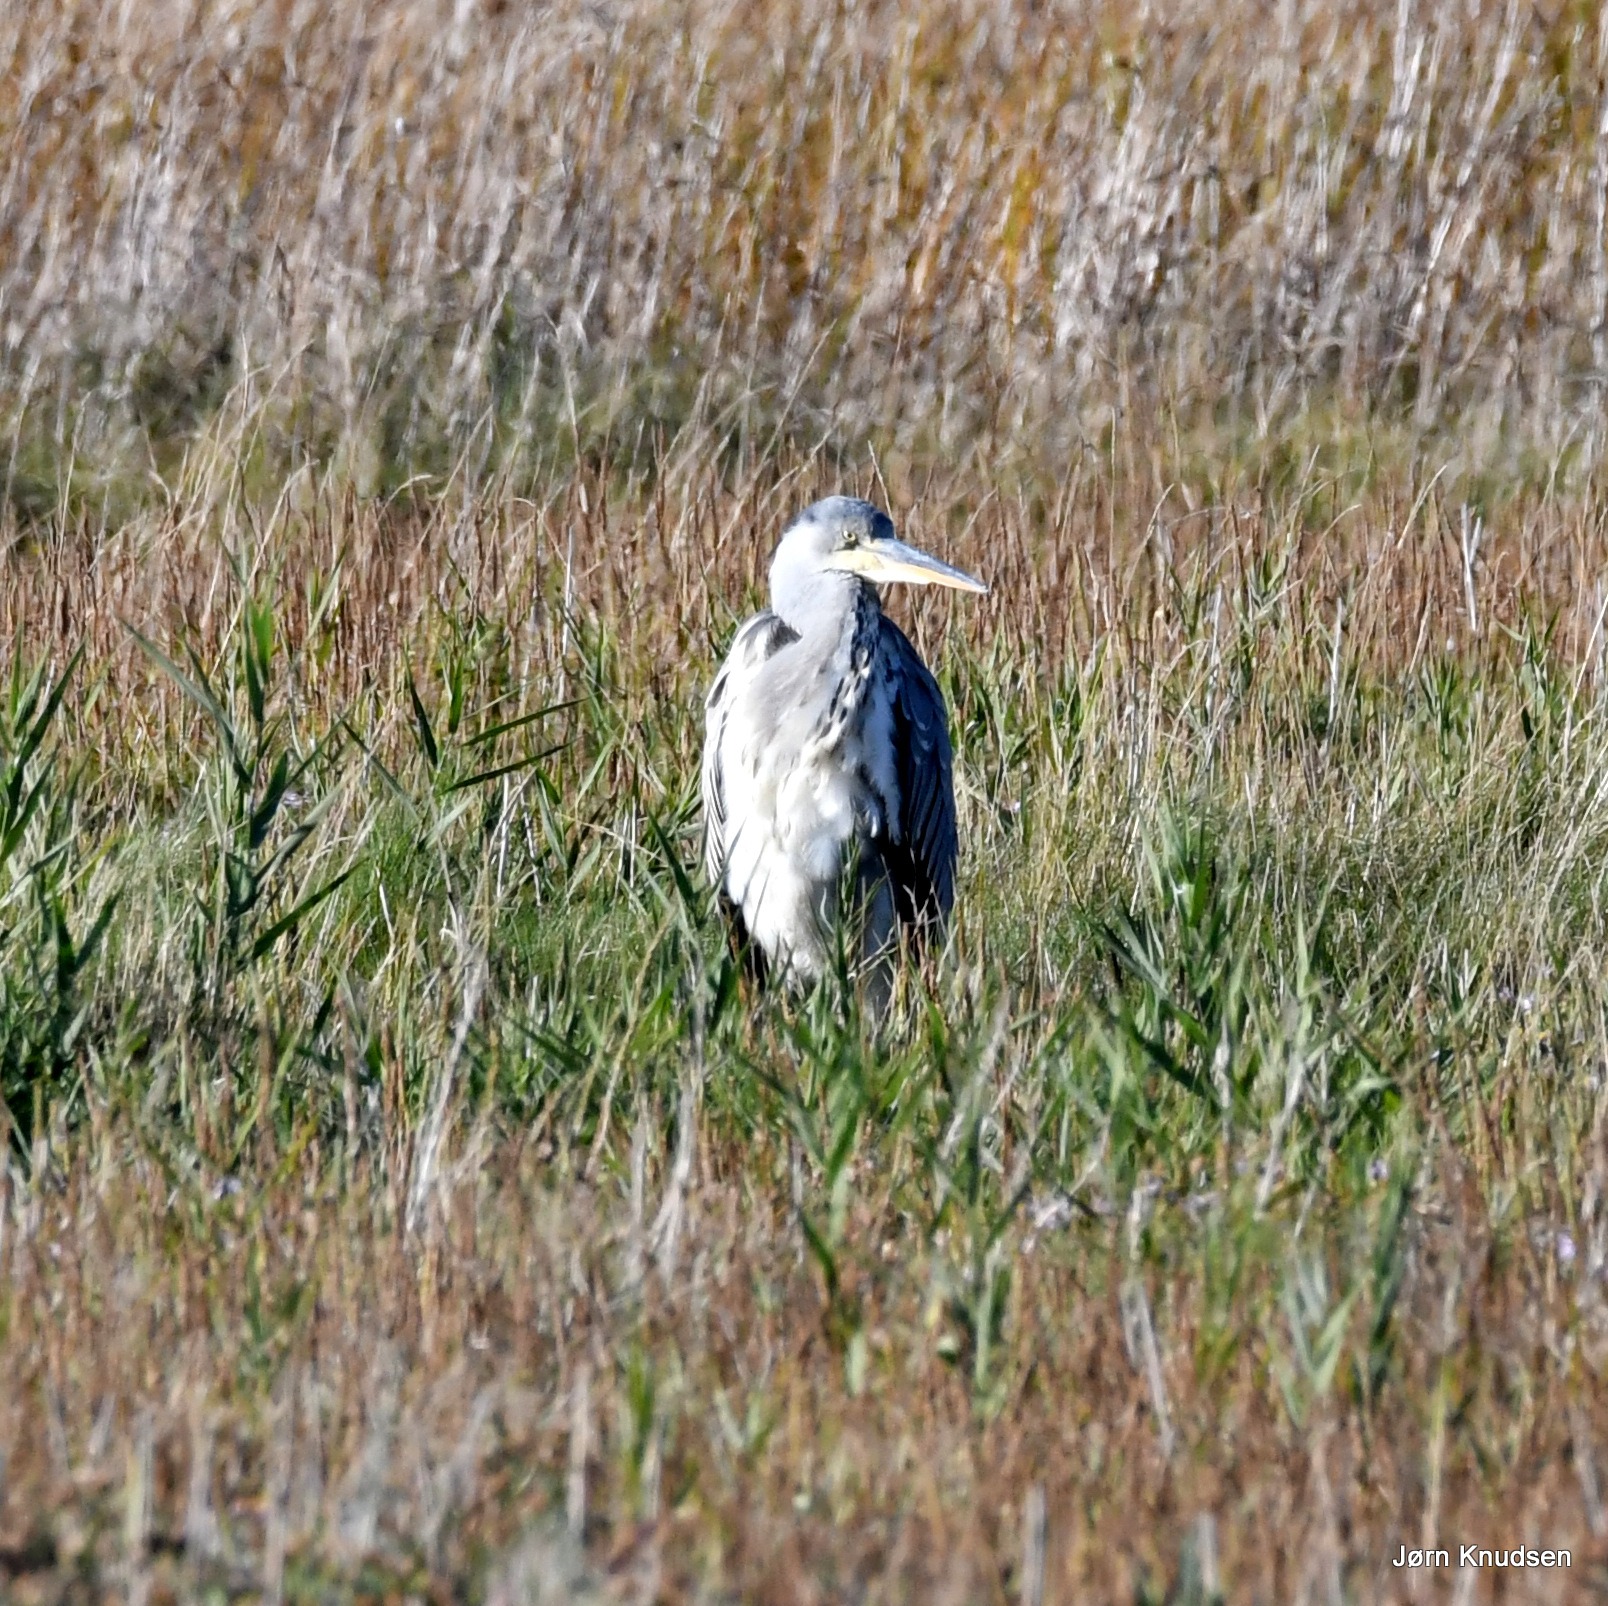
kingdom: Animalia
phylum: Chordata
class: Aves
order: Pelecaniformes
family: Ardeidae
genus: Ardea
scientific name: Ardea cinerea
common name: Fiskehejre
